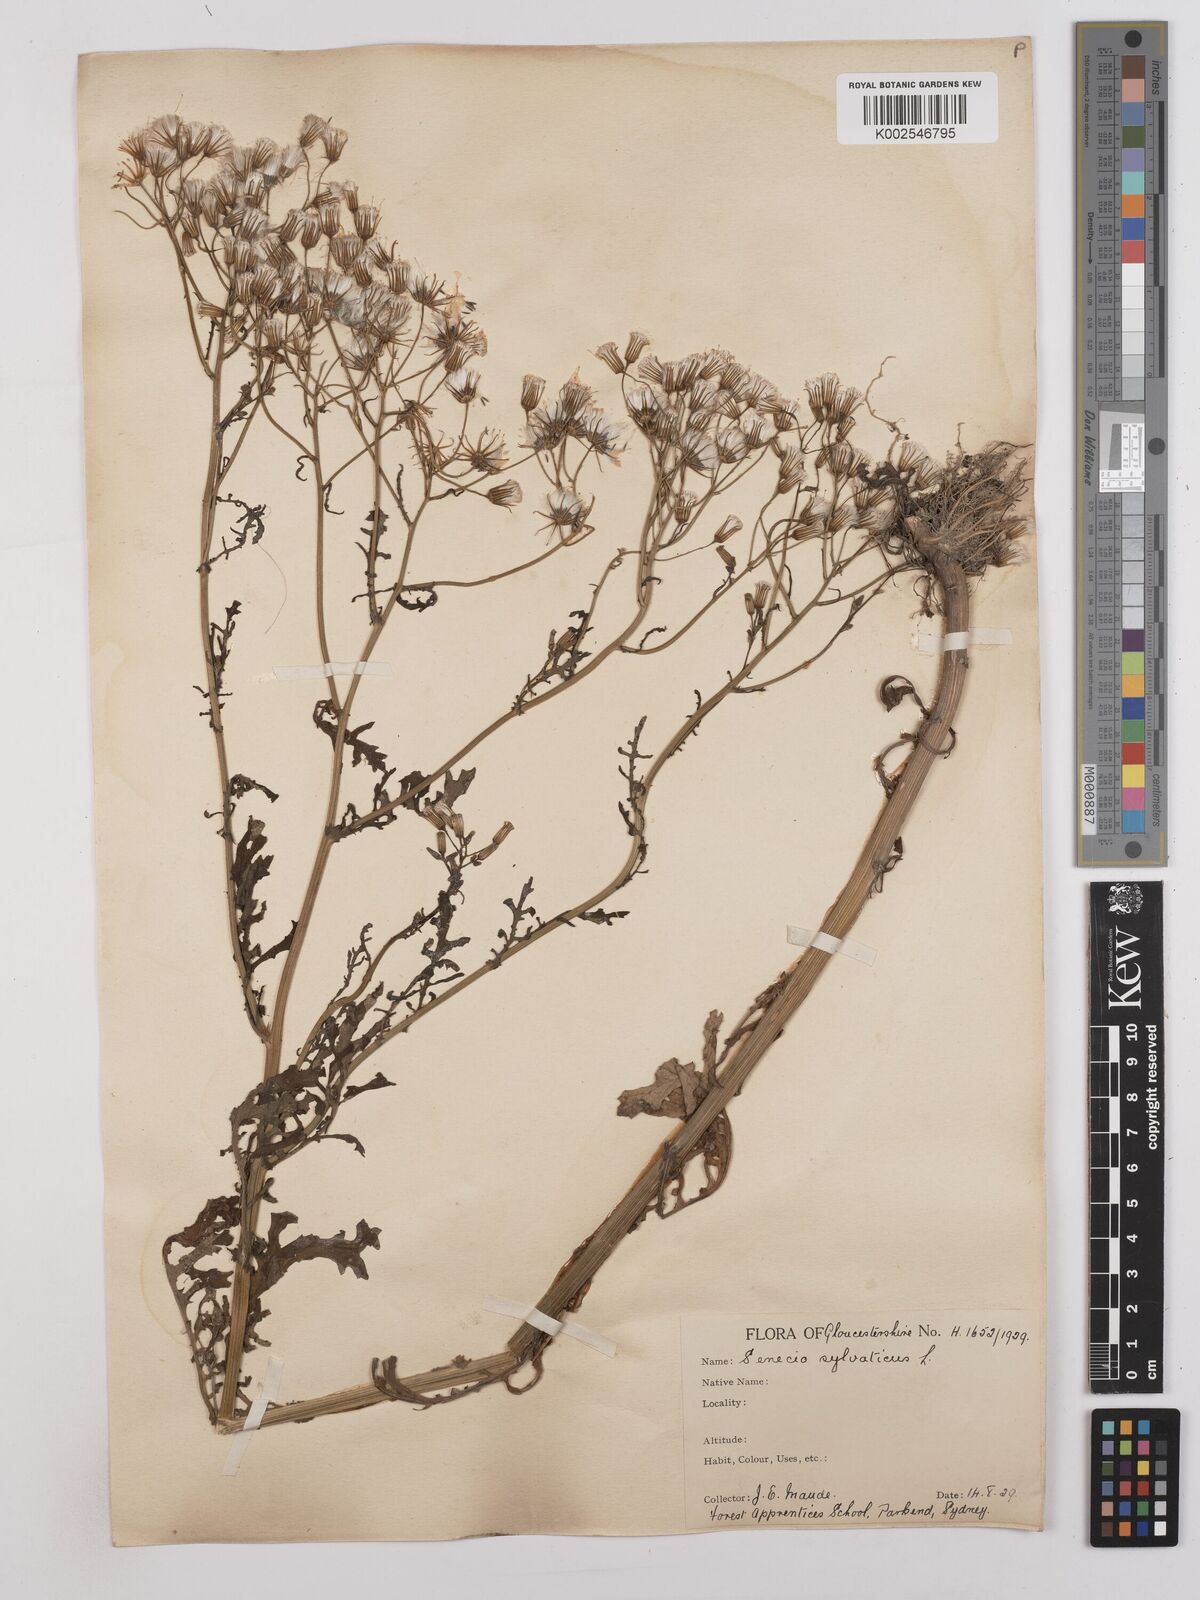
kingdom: Plantae
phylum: Tracheophyta
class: Magnoliopsida
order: Asterales
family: Asteraceae
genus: Senecio
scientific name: Senecio sylvaticus
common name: Woodland ragwort
